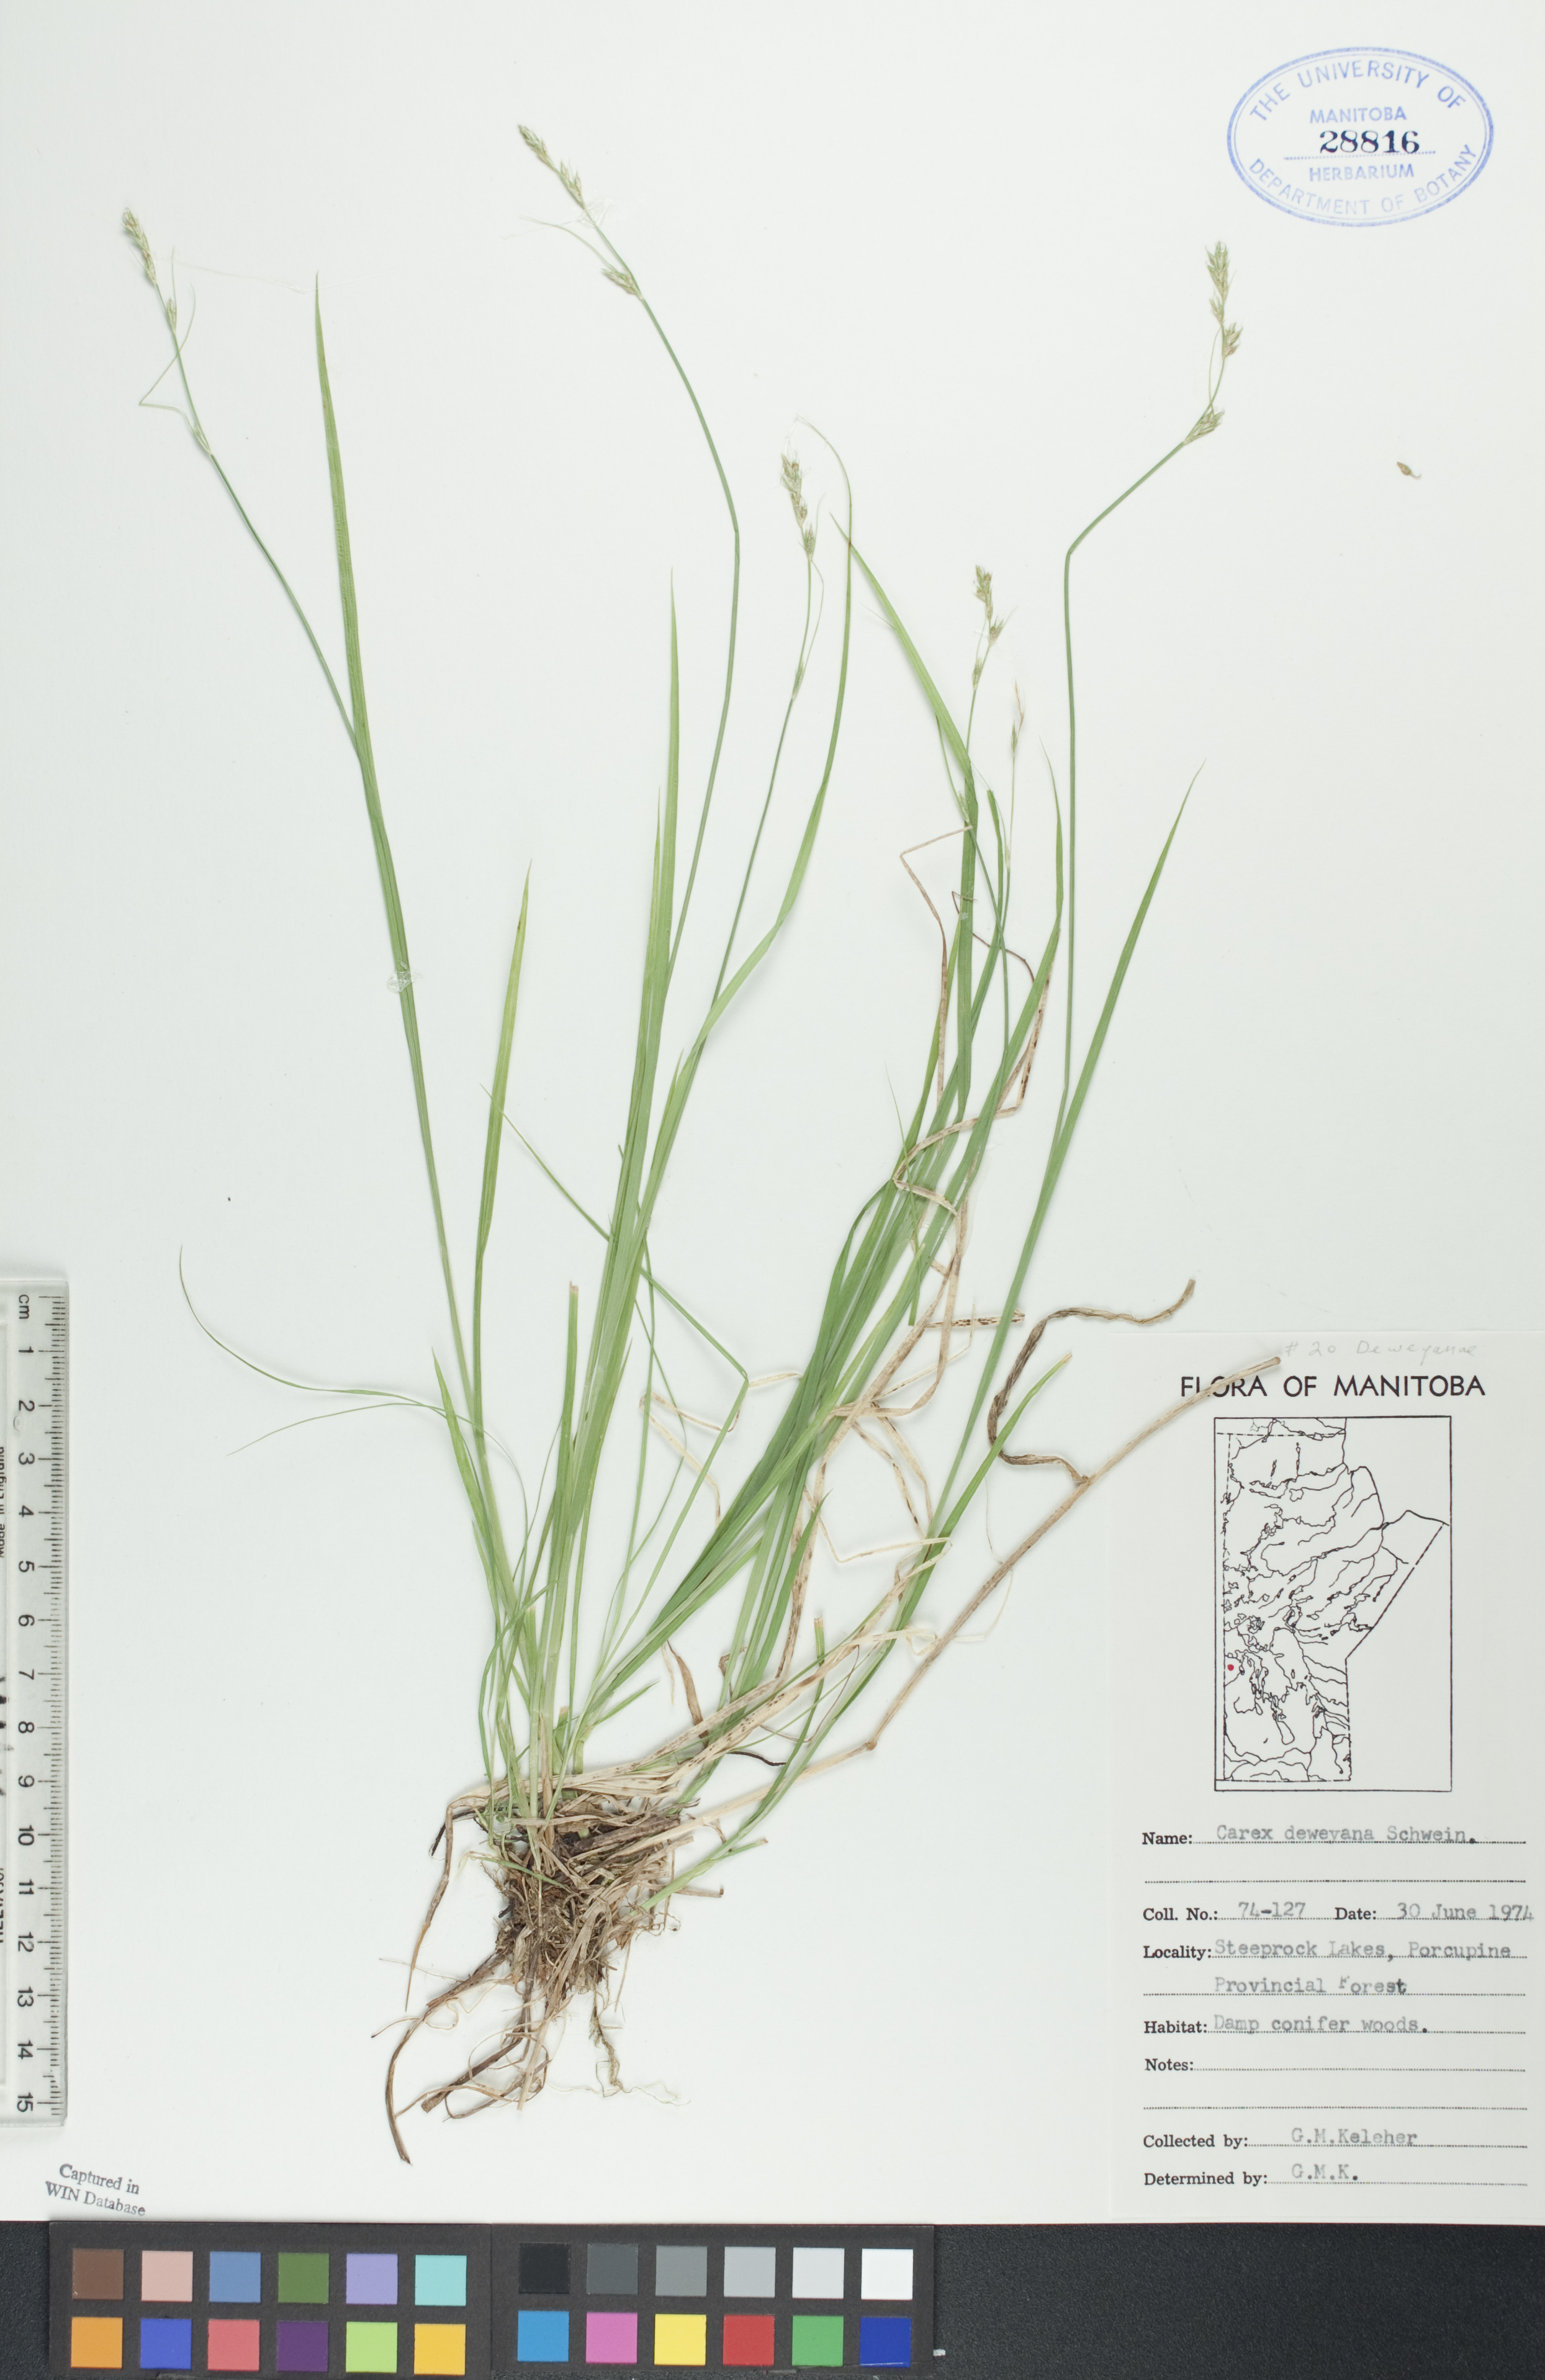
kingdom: Plantae
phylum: Tracheophyta
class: Liliopsida
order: Poales
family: Cyperaceae
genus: Carex
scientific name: Carex deweyana
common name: Dewey's sedge
